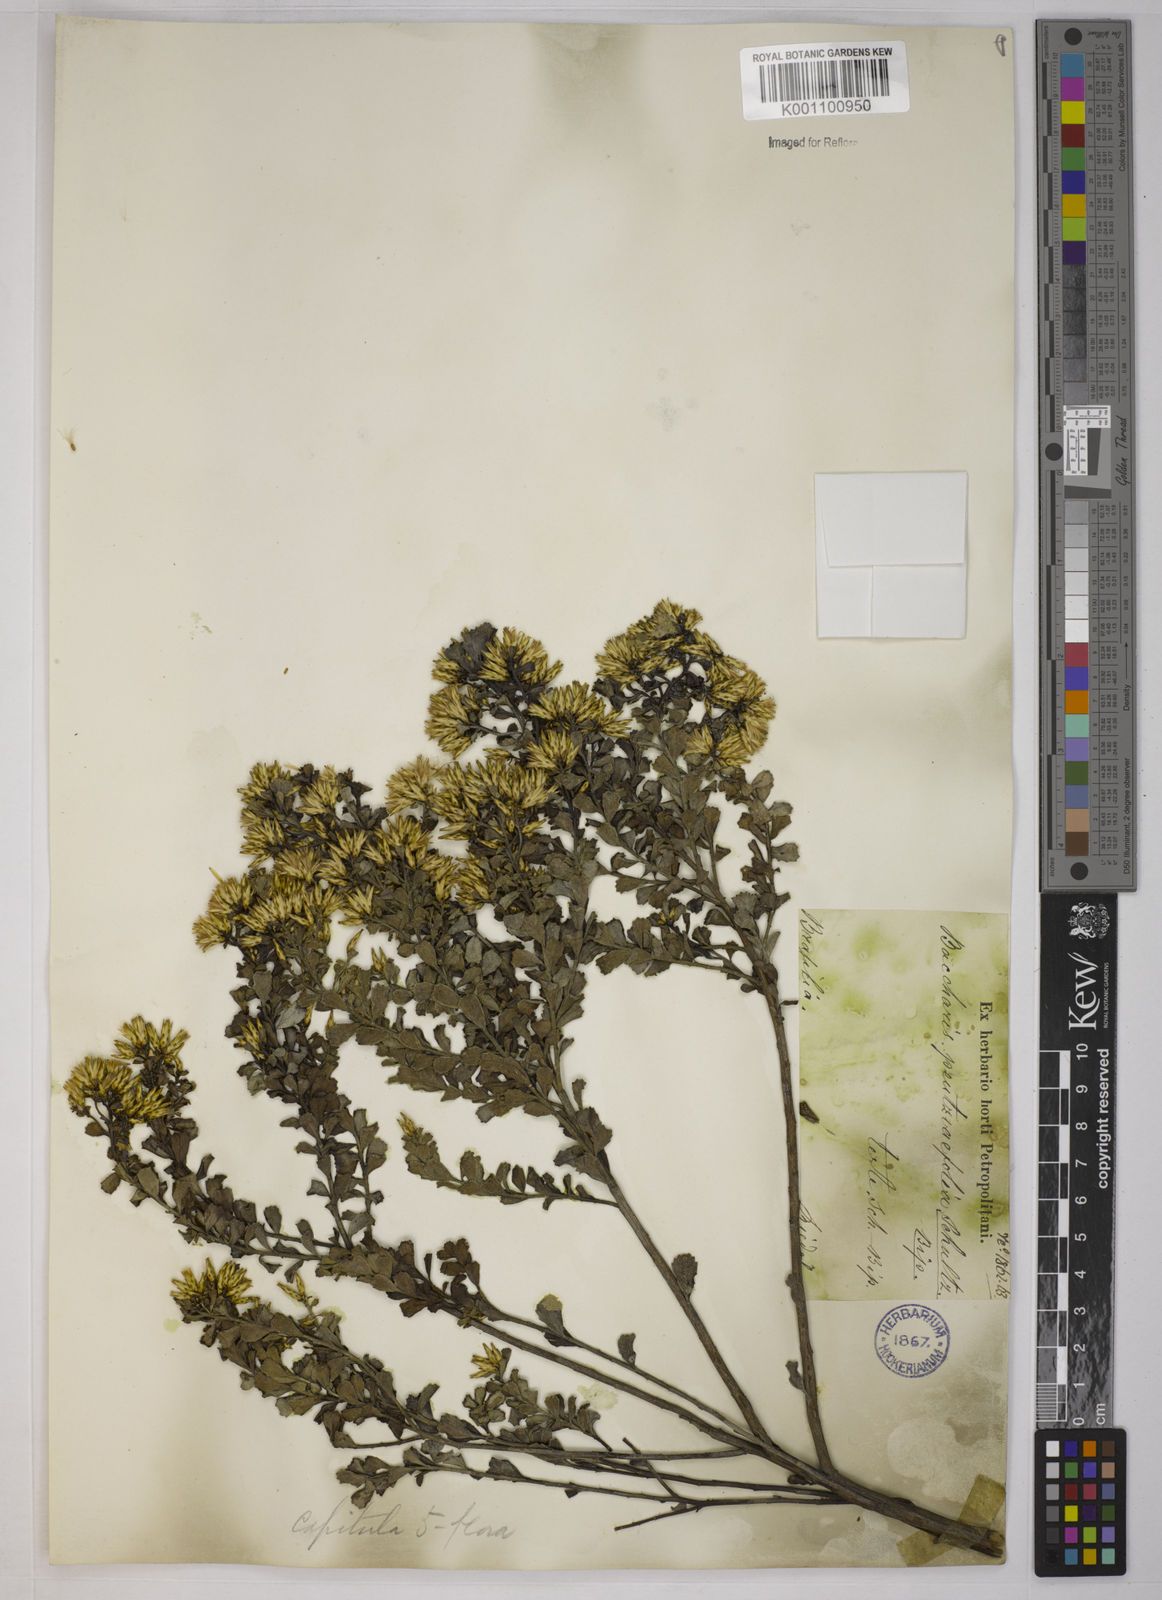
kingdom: Plantae
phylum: Tracheophyta
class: Magnoliopsida
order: Asterales
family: Asteraceae
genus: Baccharis
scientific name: Baccharis pauciflosculosa
